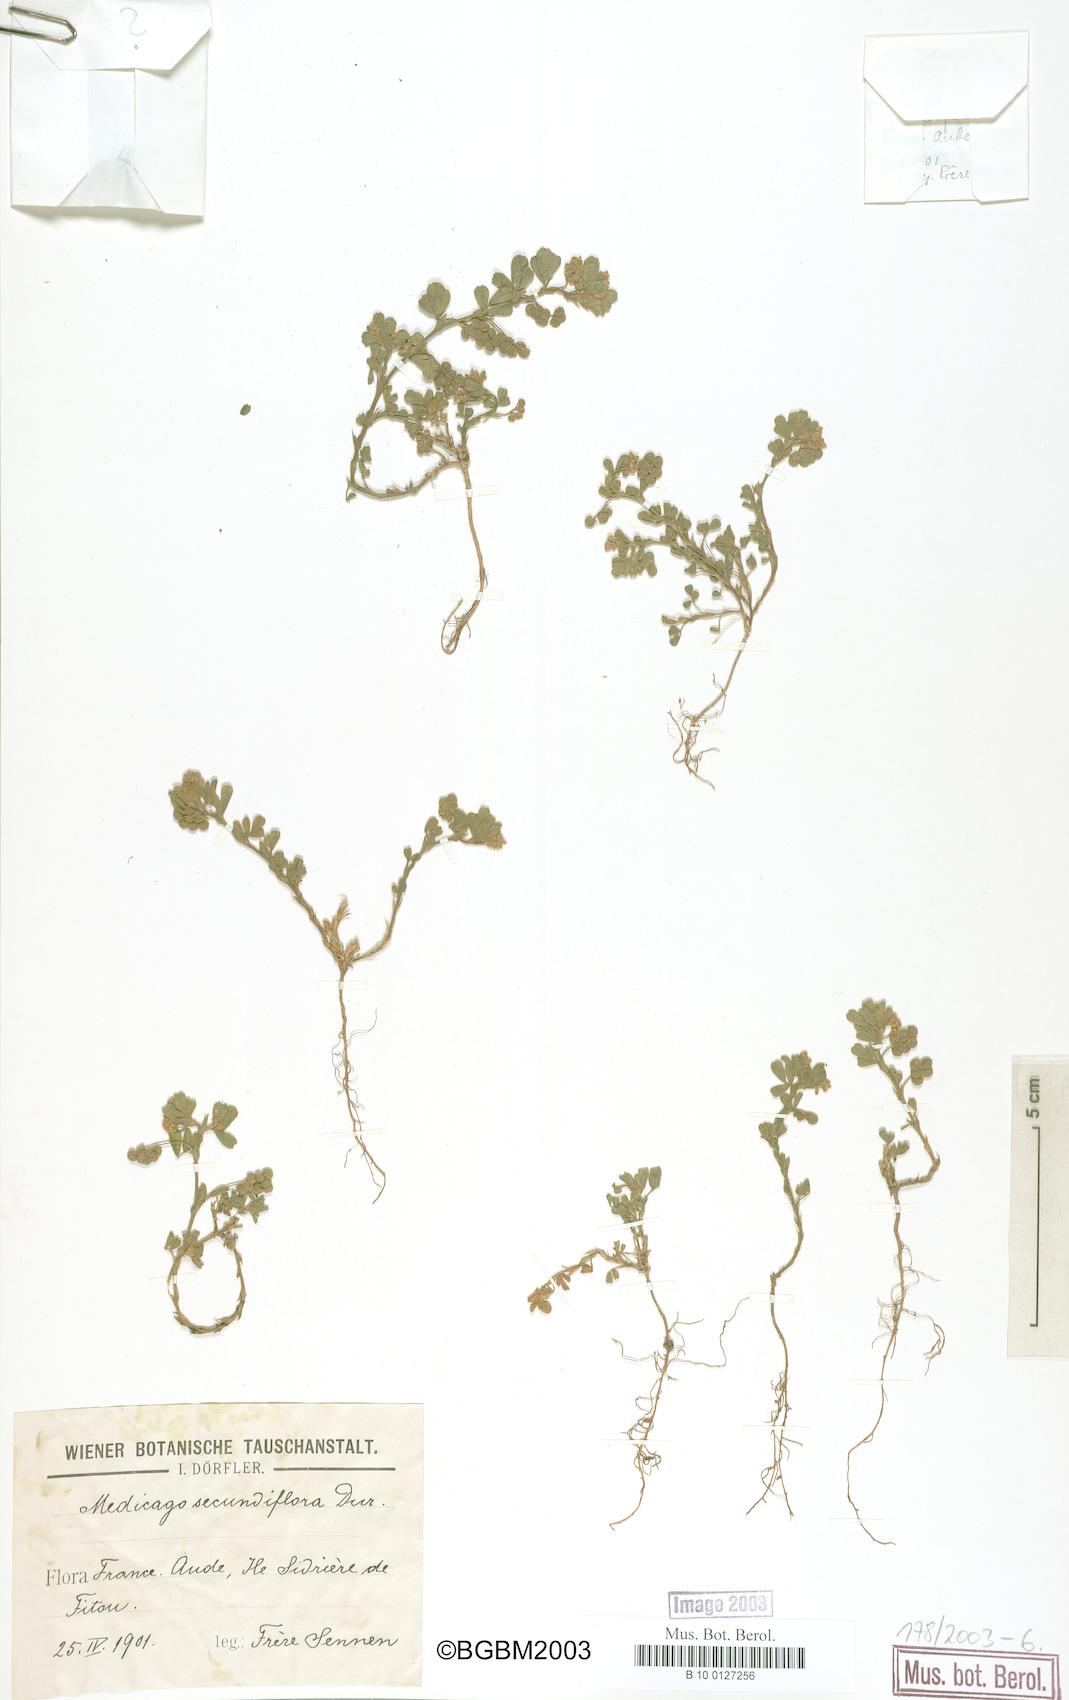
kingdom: Plantae
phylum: Tracheophyta
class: Magnoliopsida
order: Fabales
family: Fabaceae
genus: Medicago
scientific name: Medicago secundiflora
